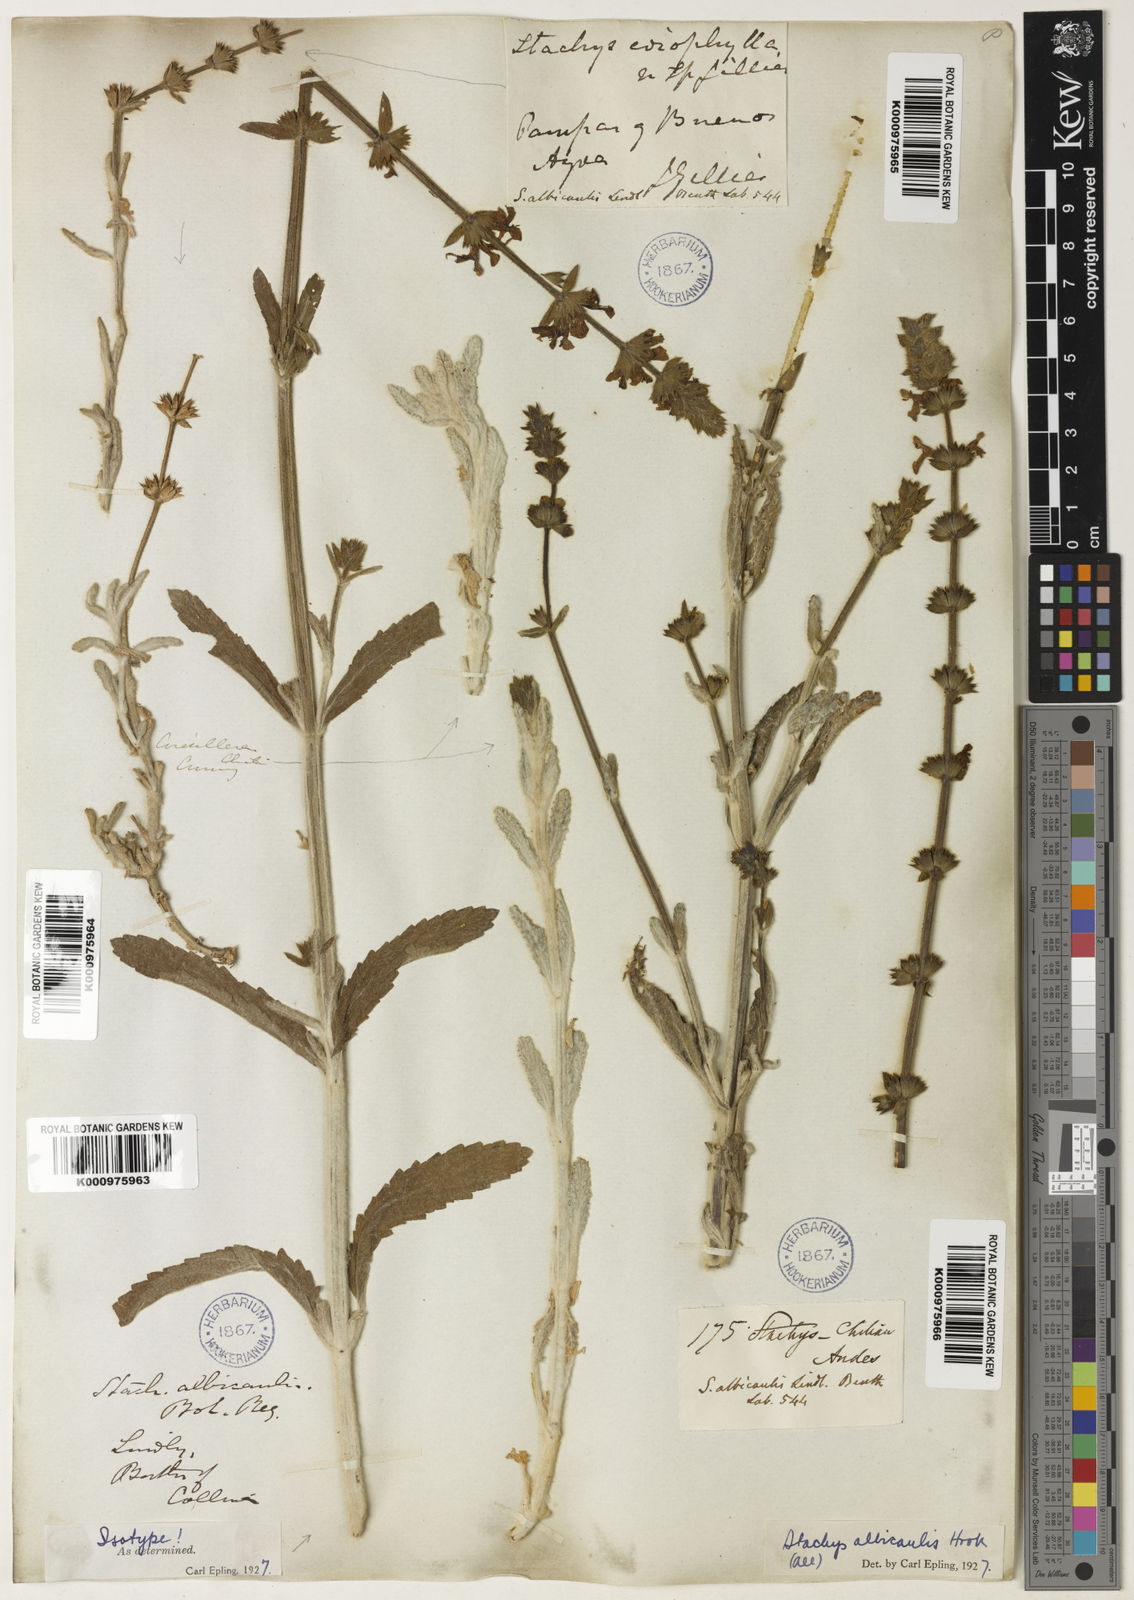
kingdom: Plantae
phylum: Tracheophyta
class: Magnoliopsida
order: Lamiales
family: Lamiaceae
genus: Stachys
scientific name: Stachys albicaulis
